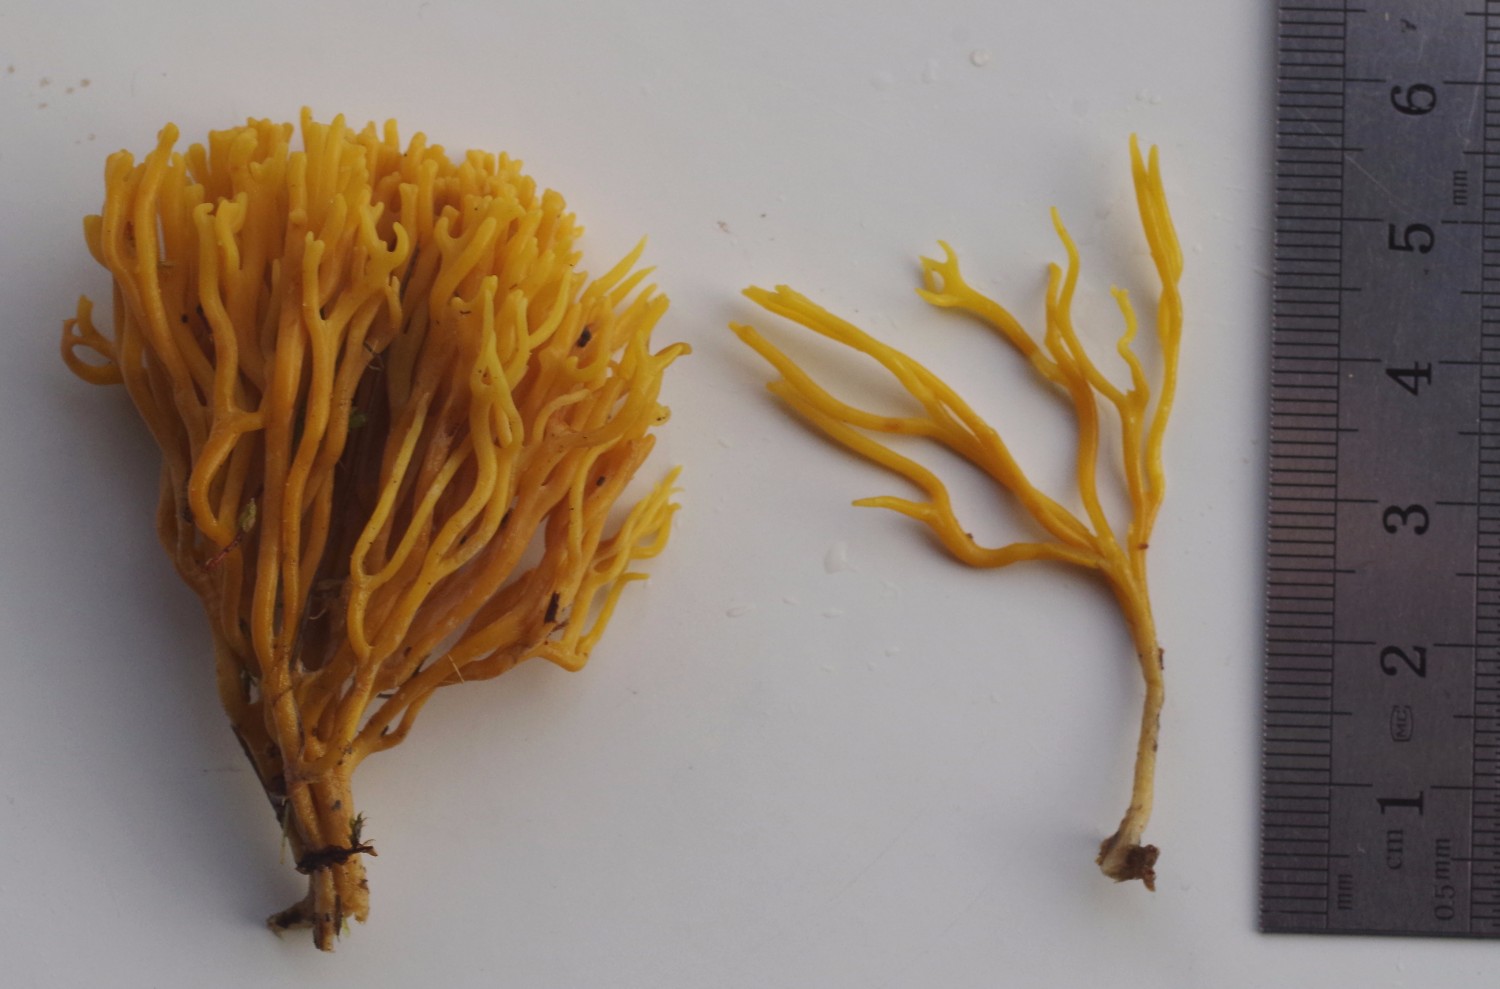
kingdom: Fungi
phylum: Basidiomycota
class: Agaricomycetes
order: Agaricales
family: Clavariaceae
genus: Clavulinopsis
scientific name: Clavulinopsis corniculata
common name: eng-køllesvamp
